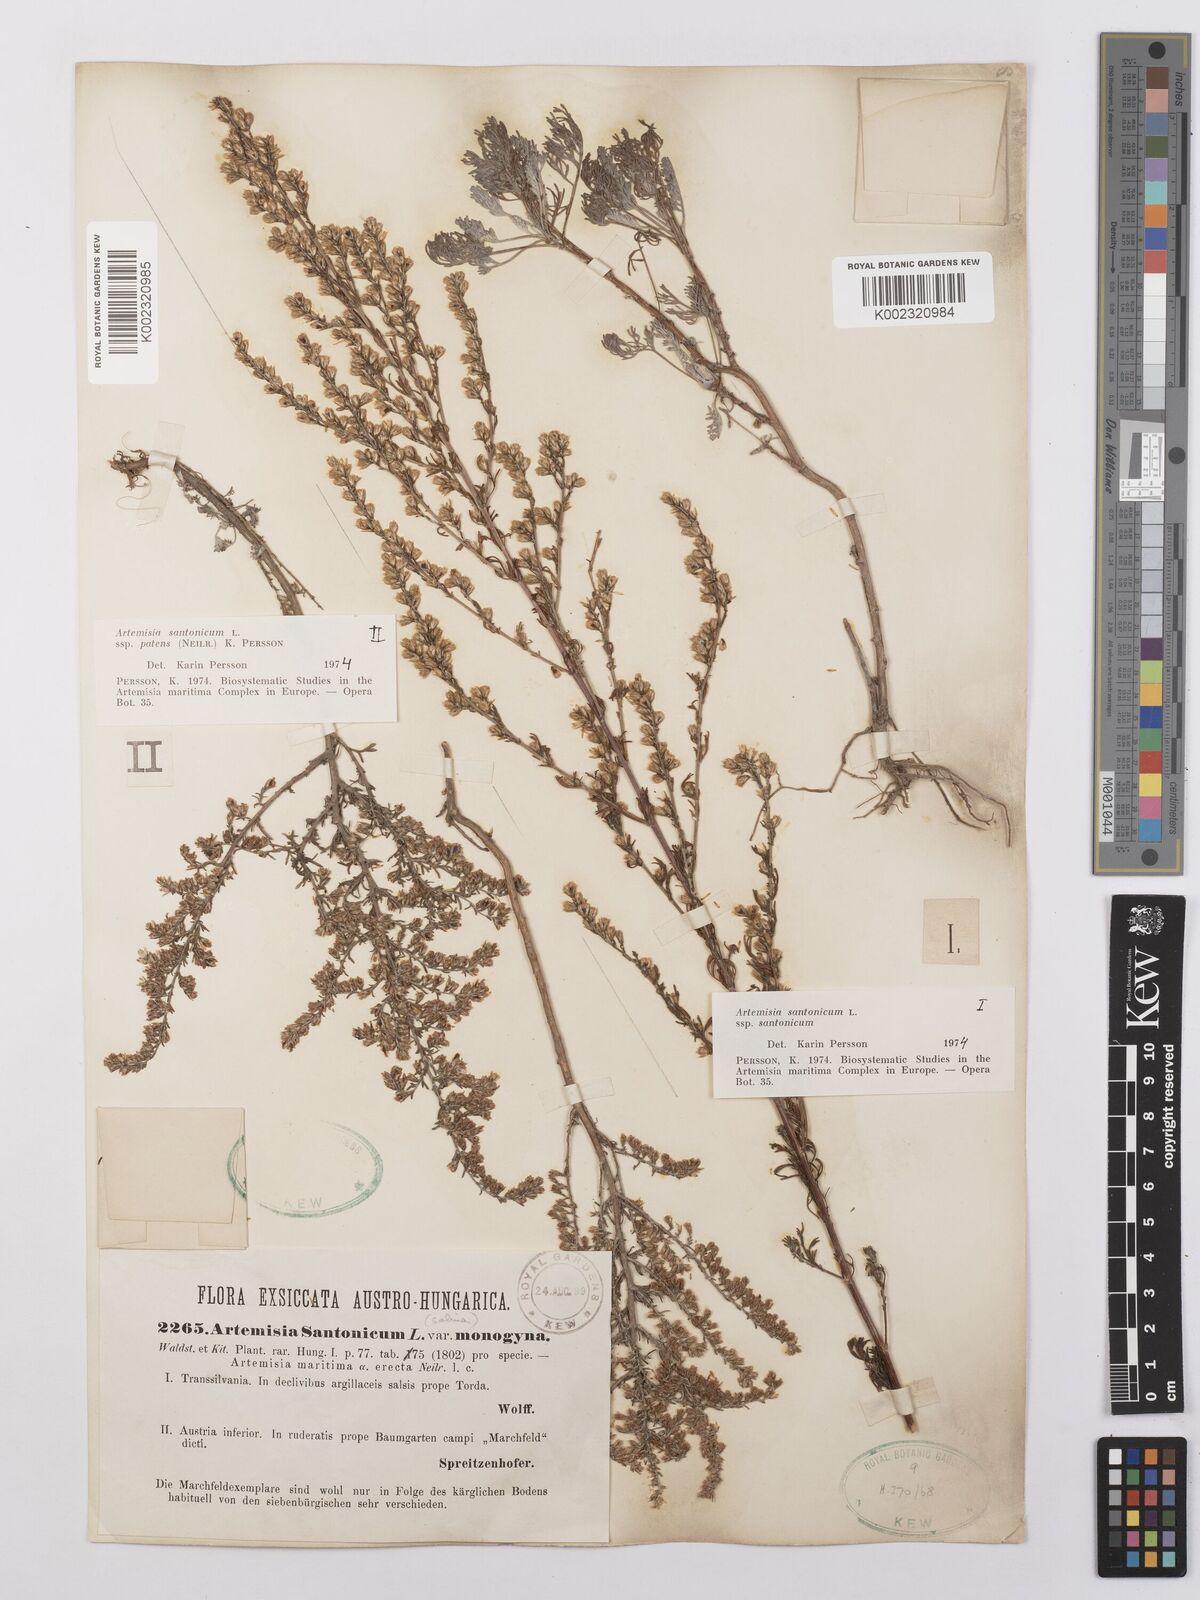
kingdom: Plantae
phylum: Tracheophyta
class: Magnoliopsida
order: Asterales
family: Asteraceae
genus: Artemisia
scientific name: Artemisia santonicum
